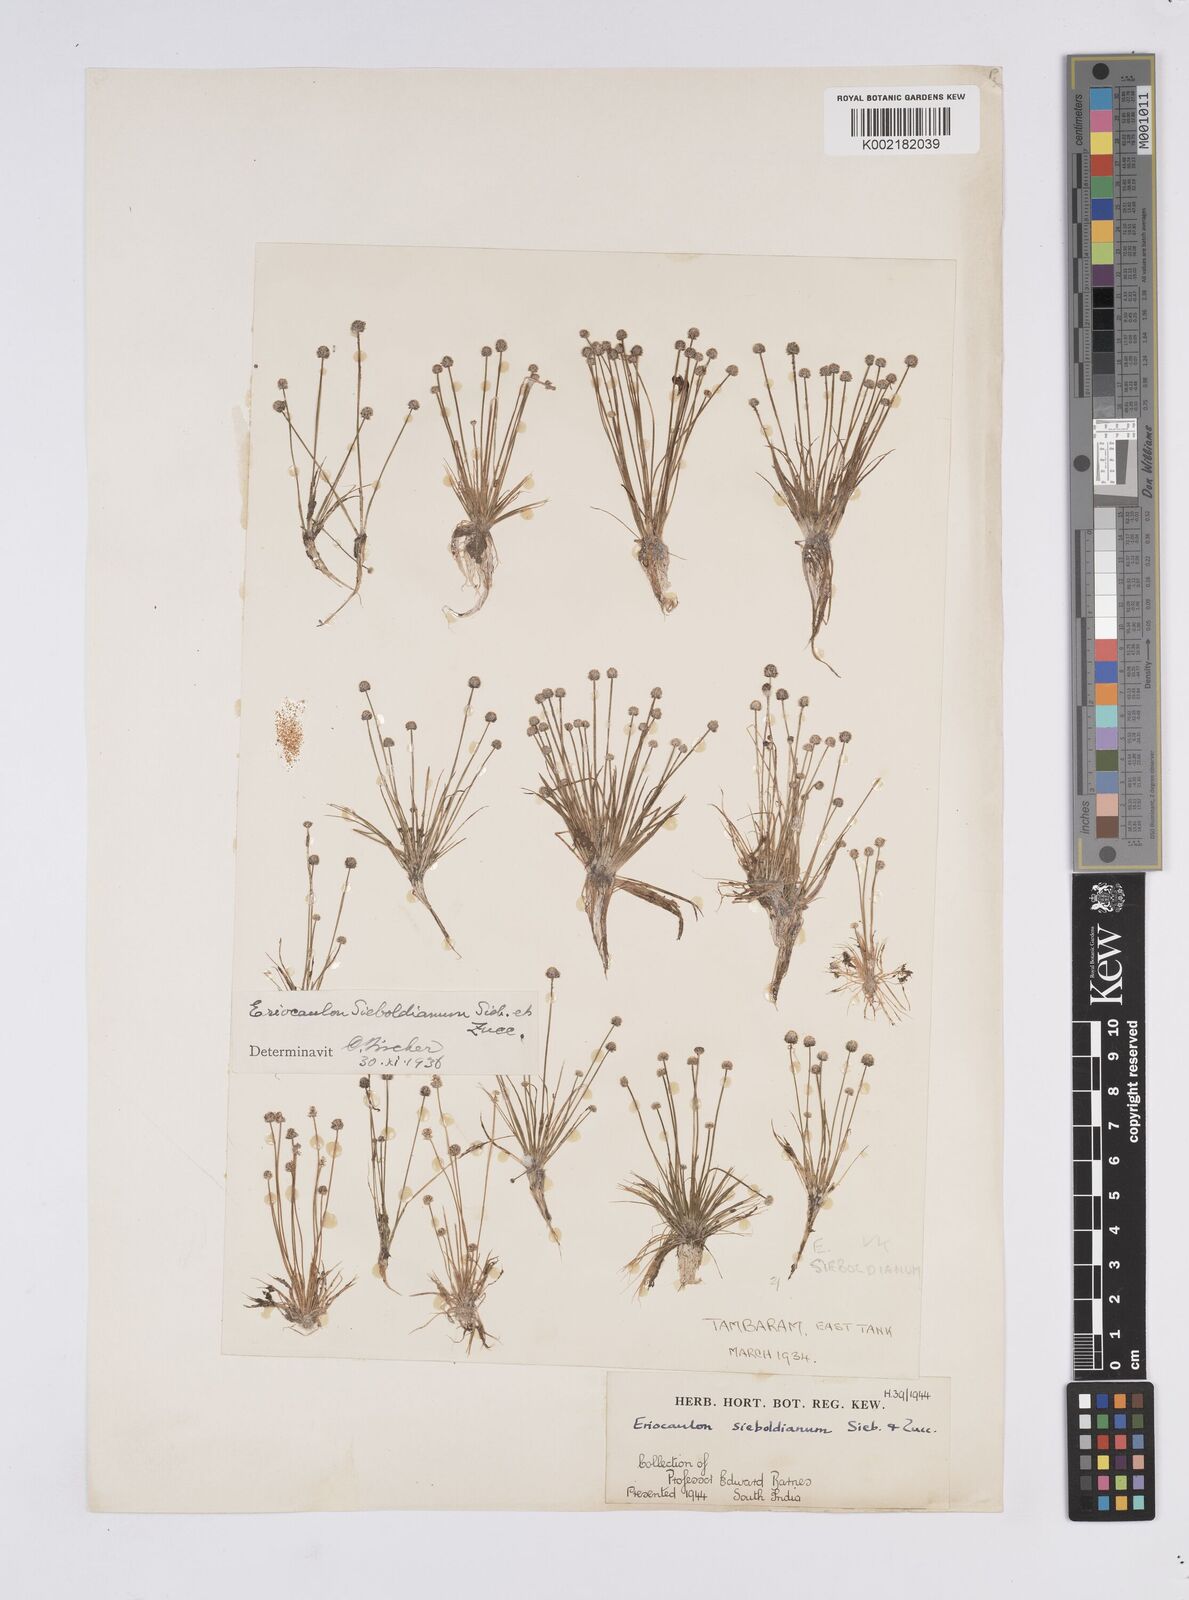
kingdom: Plantae
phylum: Tracheophyta
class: Liliopsida
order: Poales
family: Eriocaulaceae
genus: Eriocaulon
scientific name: Eriocaulon cinereum
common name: Ashy pipewort
